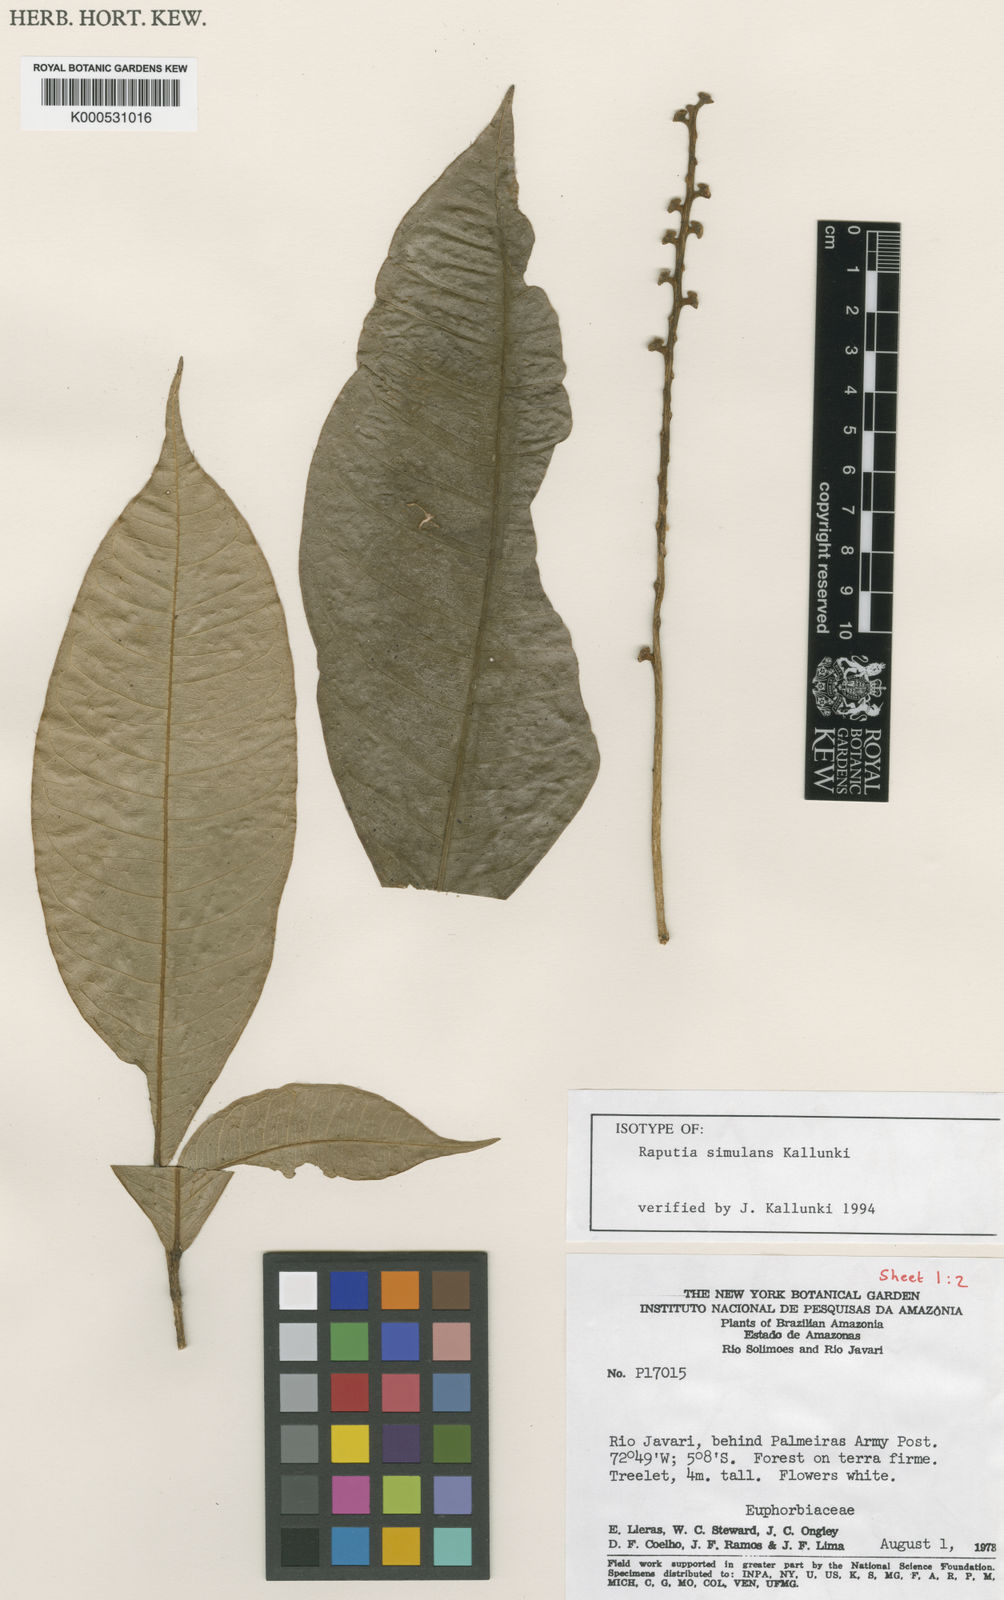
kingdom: Plantae
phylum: Tracheophyta
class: Magnoliopsida
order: Sapindales
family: Rutaceae
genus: Raputia
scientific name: Raputia megalantha
